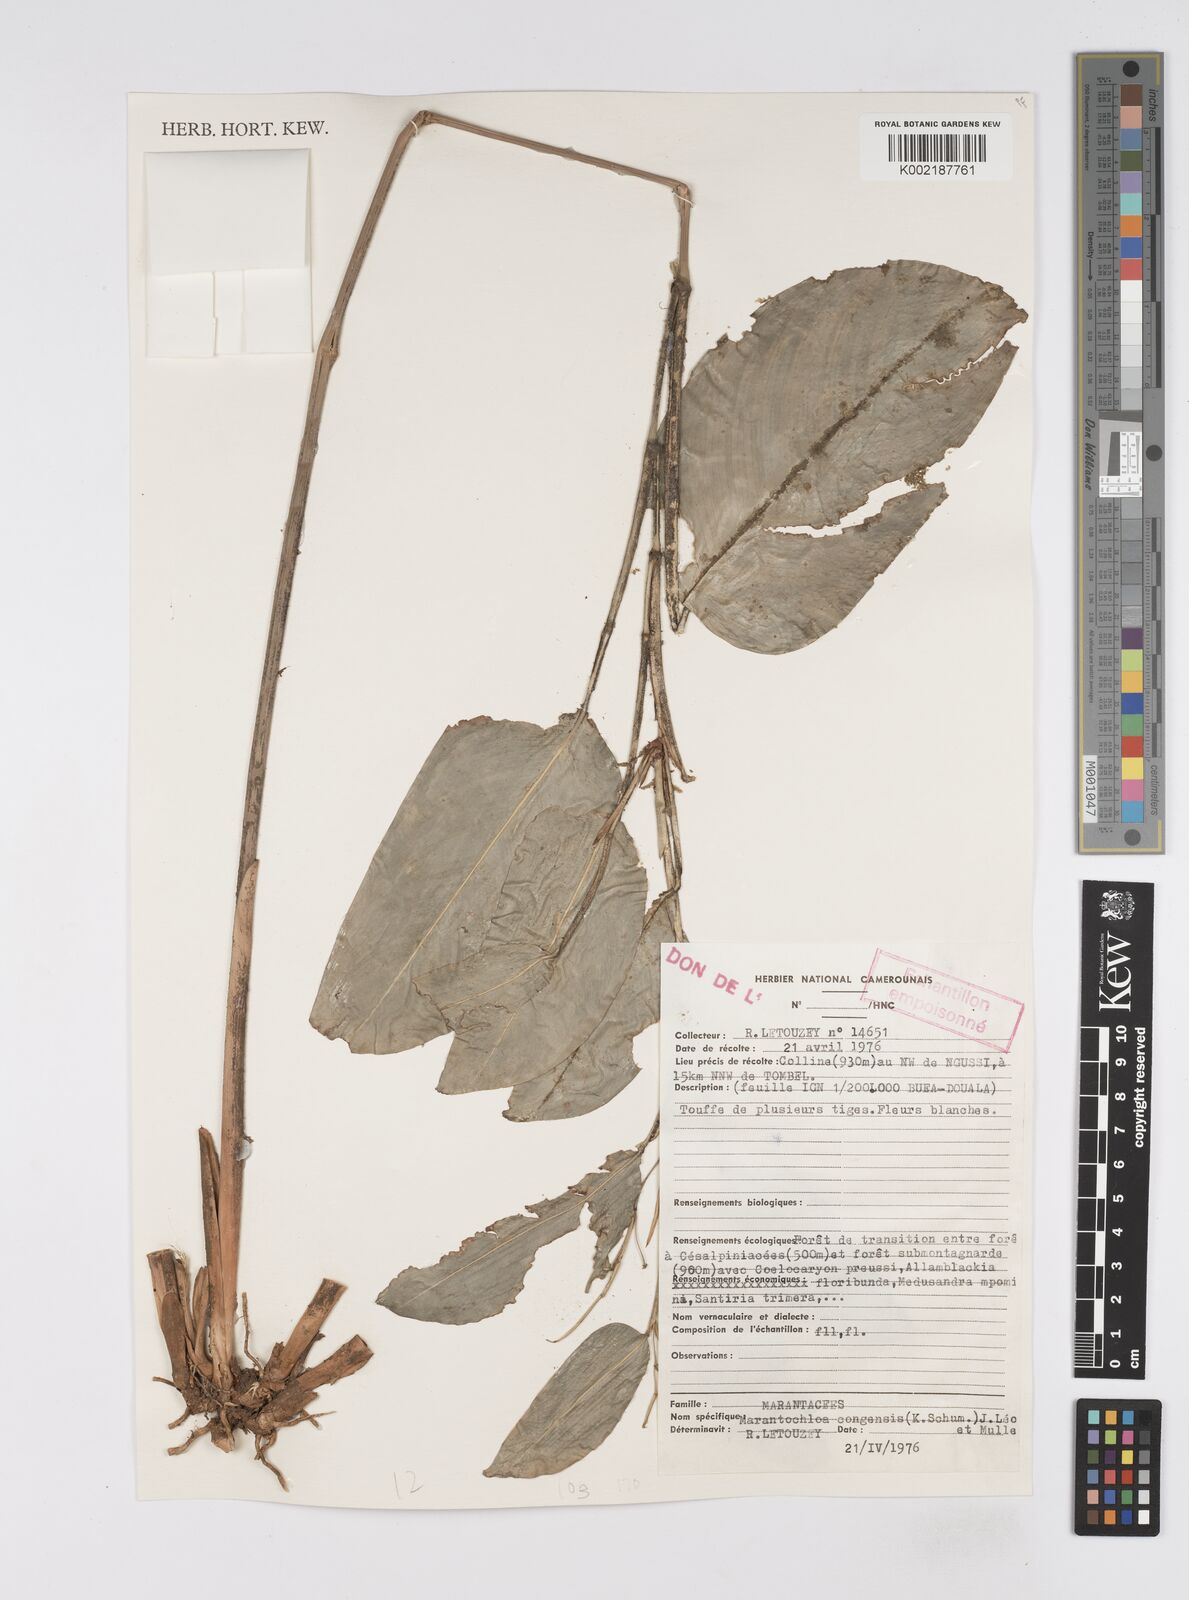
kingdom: Plantae
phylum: Tracheophyta
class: Liliopsida
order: Zingiberales
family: Marantaceae
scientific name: Marantaceae
